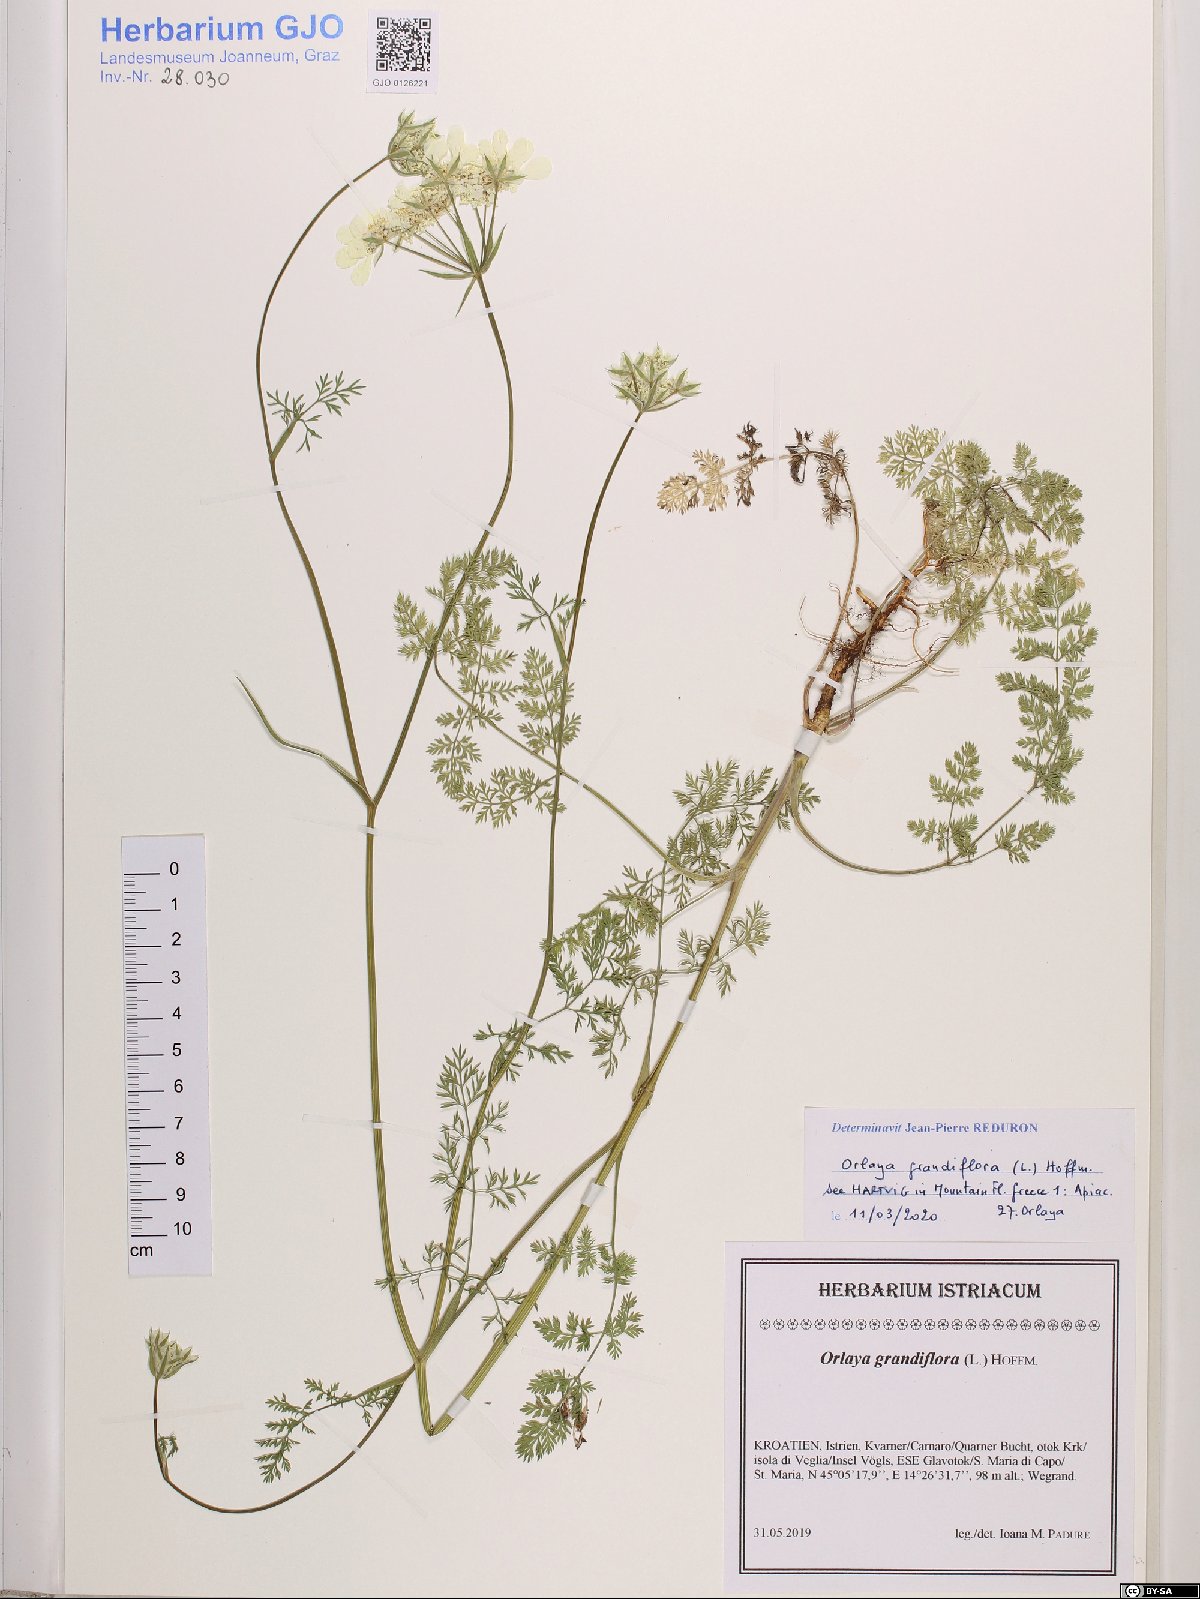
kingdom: Plantae
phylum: Tracheophyta
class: Magnoliopsida
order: Apiales
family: Apiaceae
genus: Orlaya
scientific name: Orlaya grandiflora
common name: White lace flower
